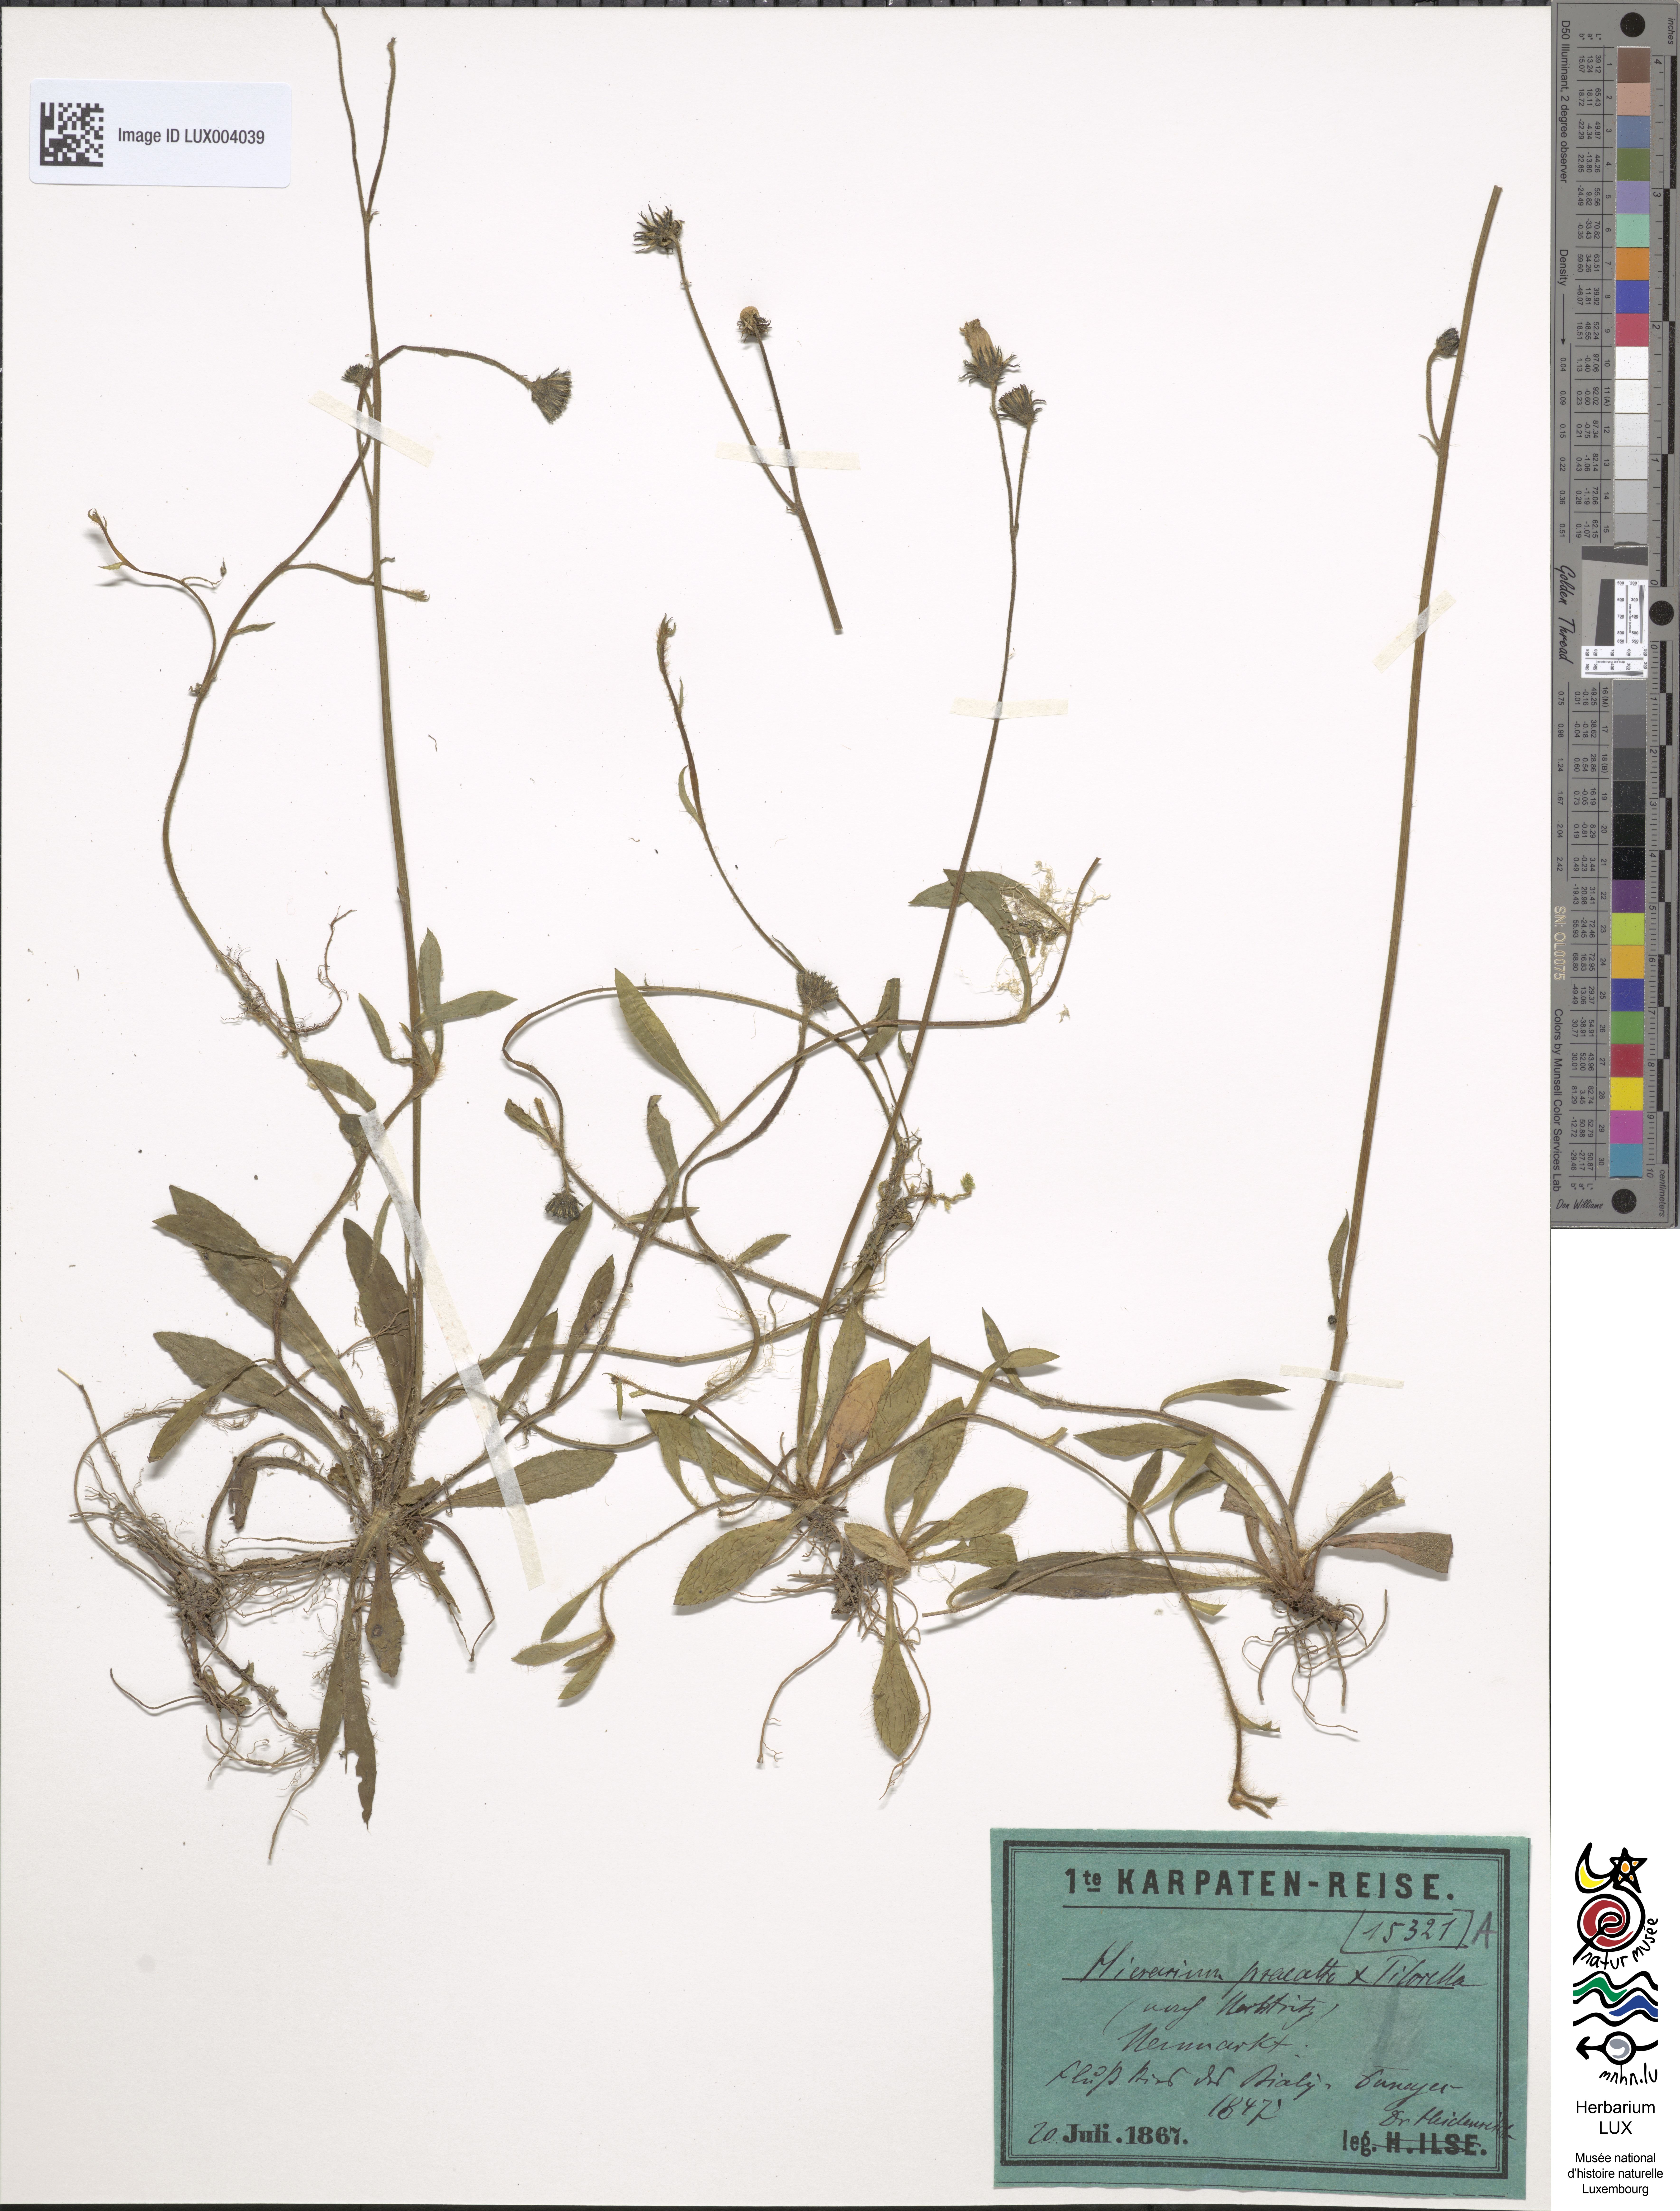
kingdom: Plantae
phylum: Tracheophyta
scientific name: Tracheophyta
